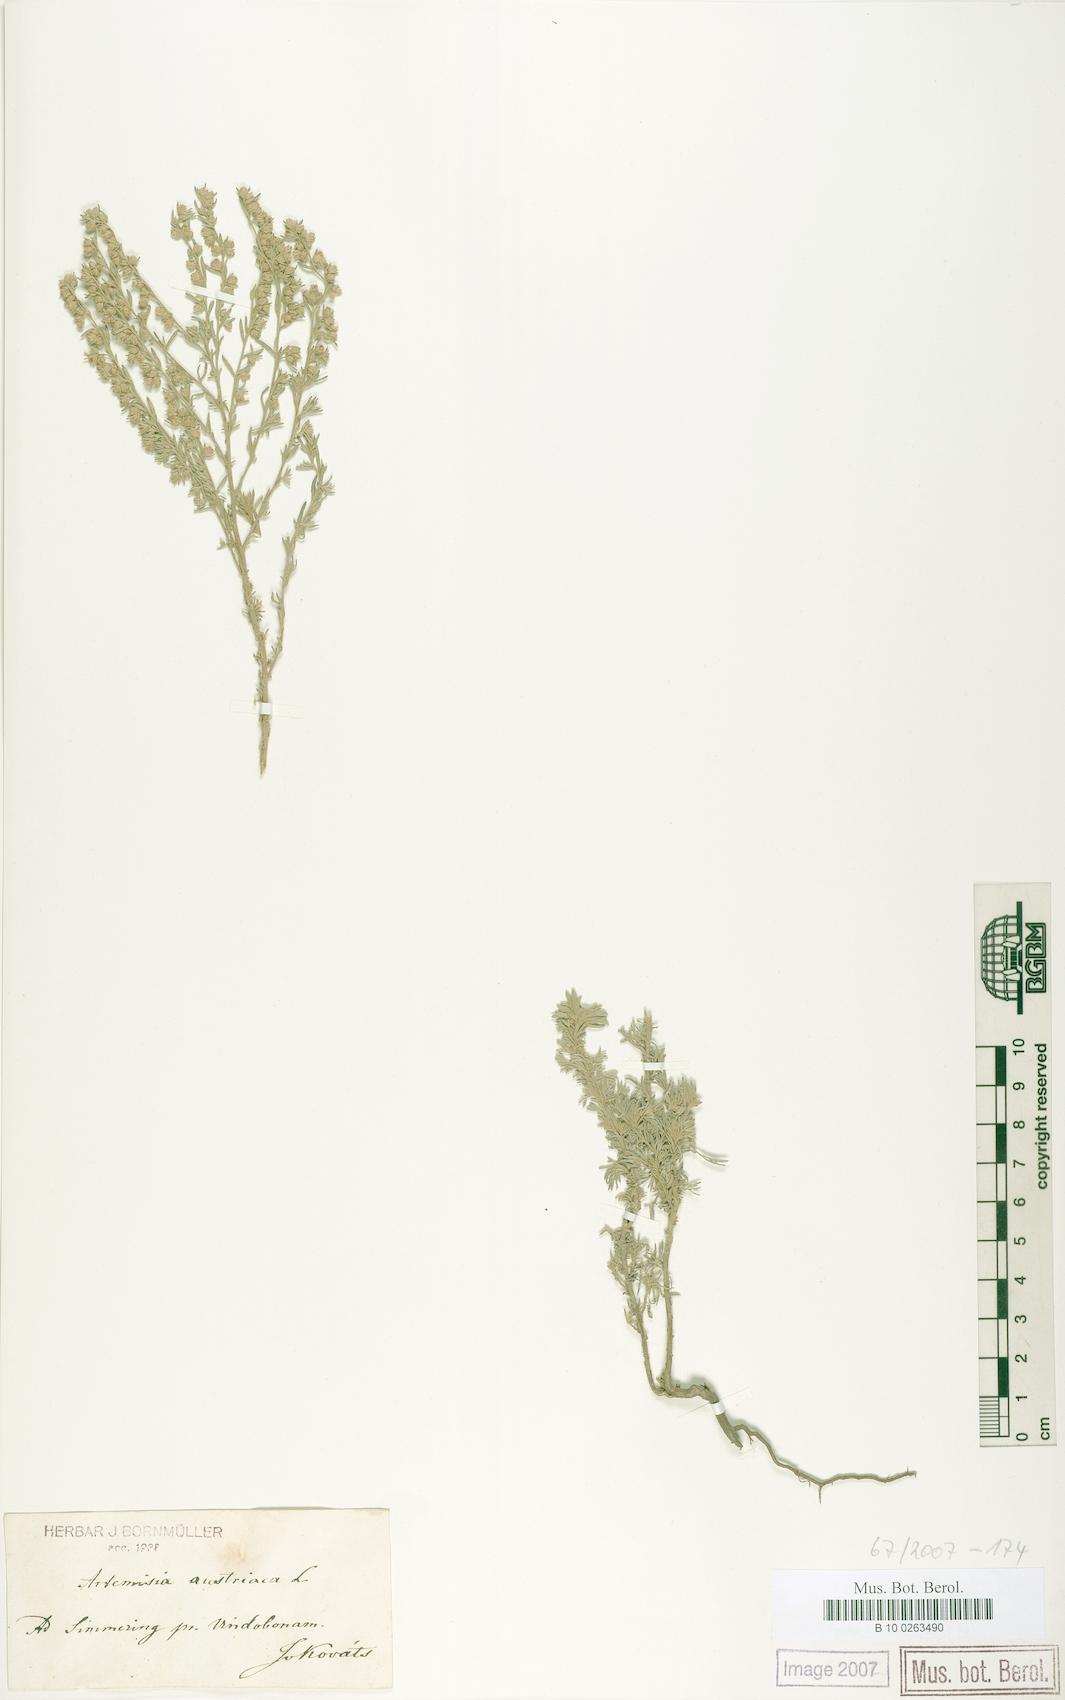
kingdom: Plantae
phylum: Tracheophyta
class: Magnoliopsida
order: Asterales
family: Asteraceae
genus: Artemisia
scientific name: Artemisia austriaca
